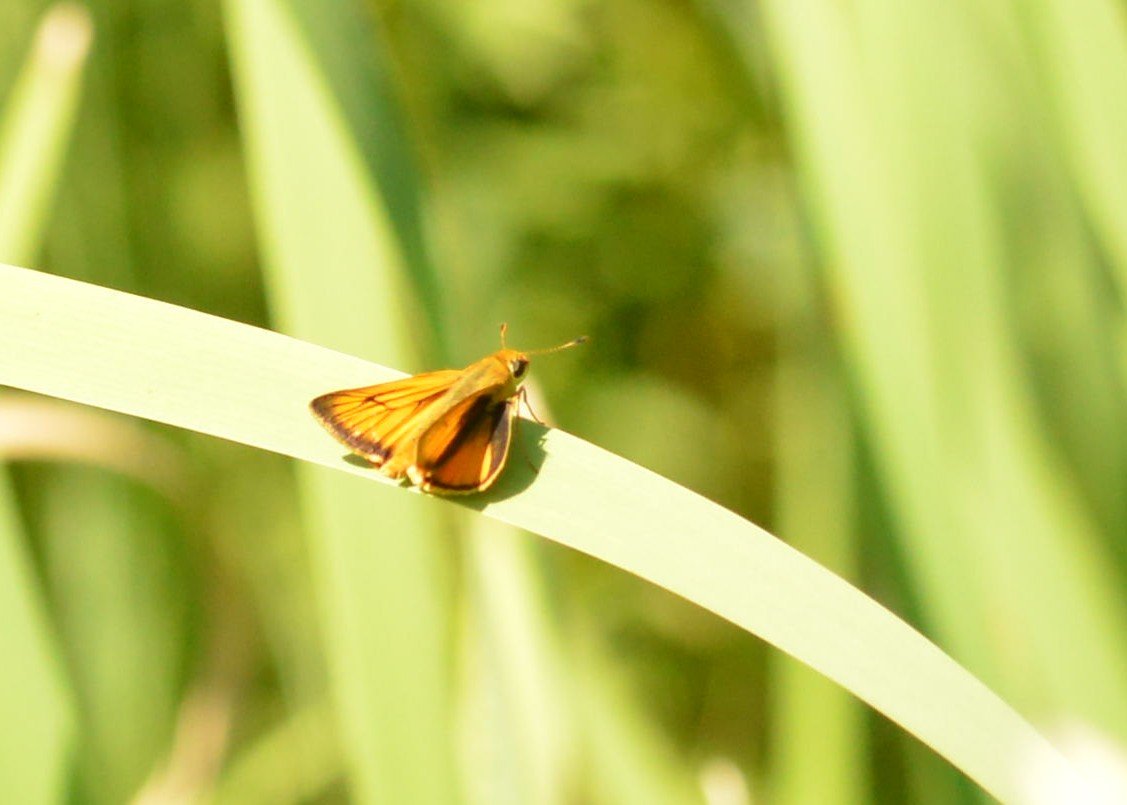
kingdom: Animalia
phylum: Arthropoda
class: Insecta
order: Lepidoptera
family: Hesperiidae
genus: Atrytone
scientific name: Atrytone delaware
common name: Delaware Skipper
